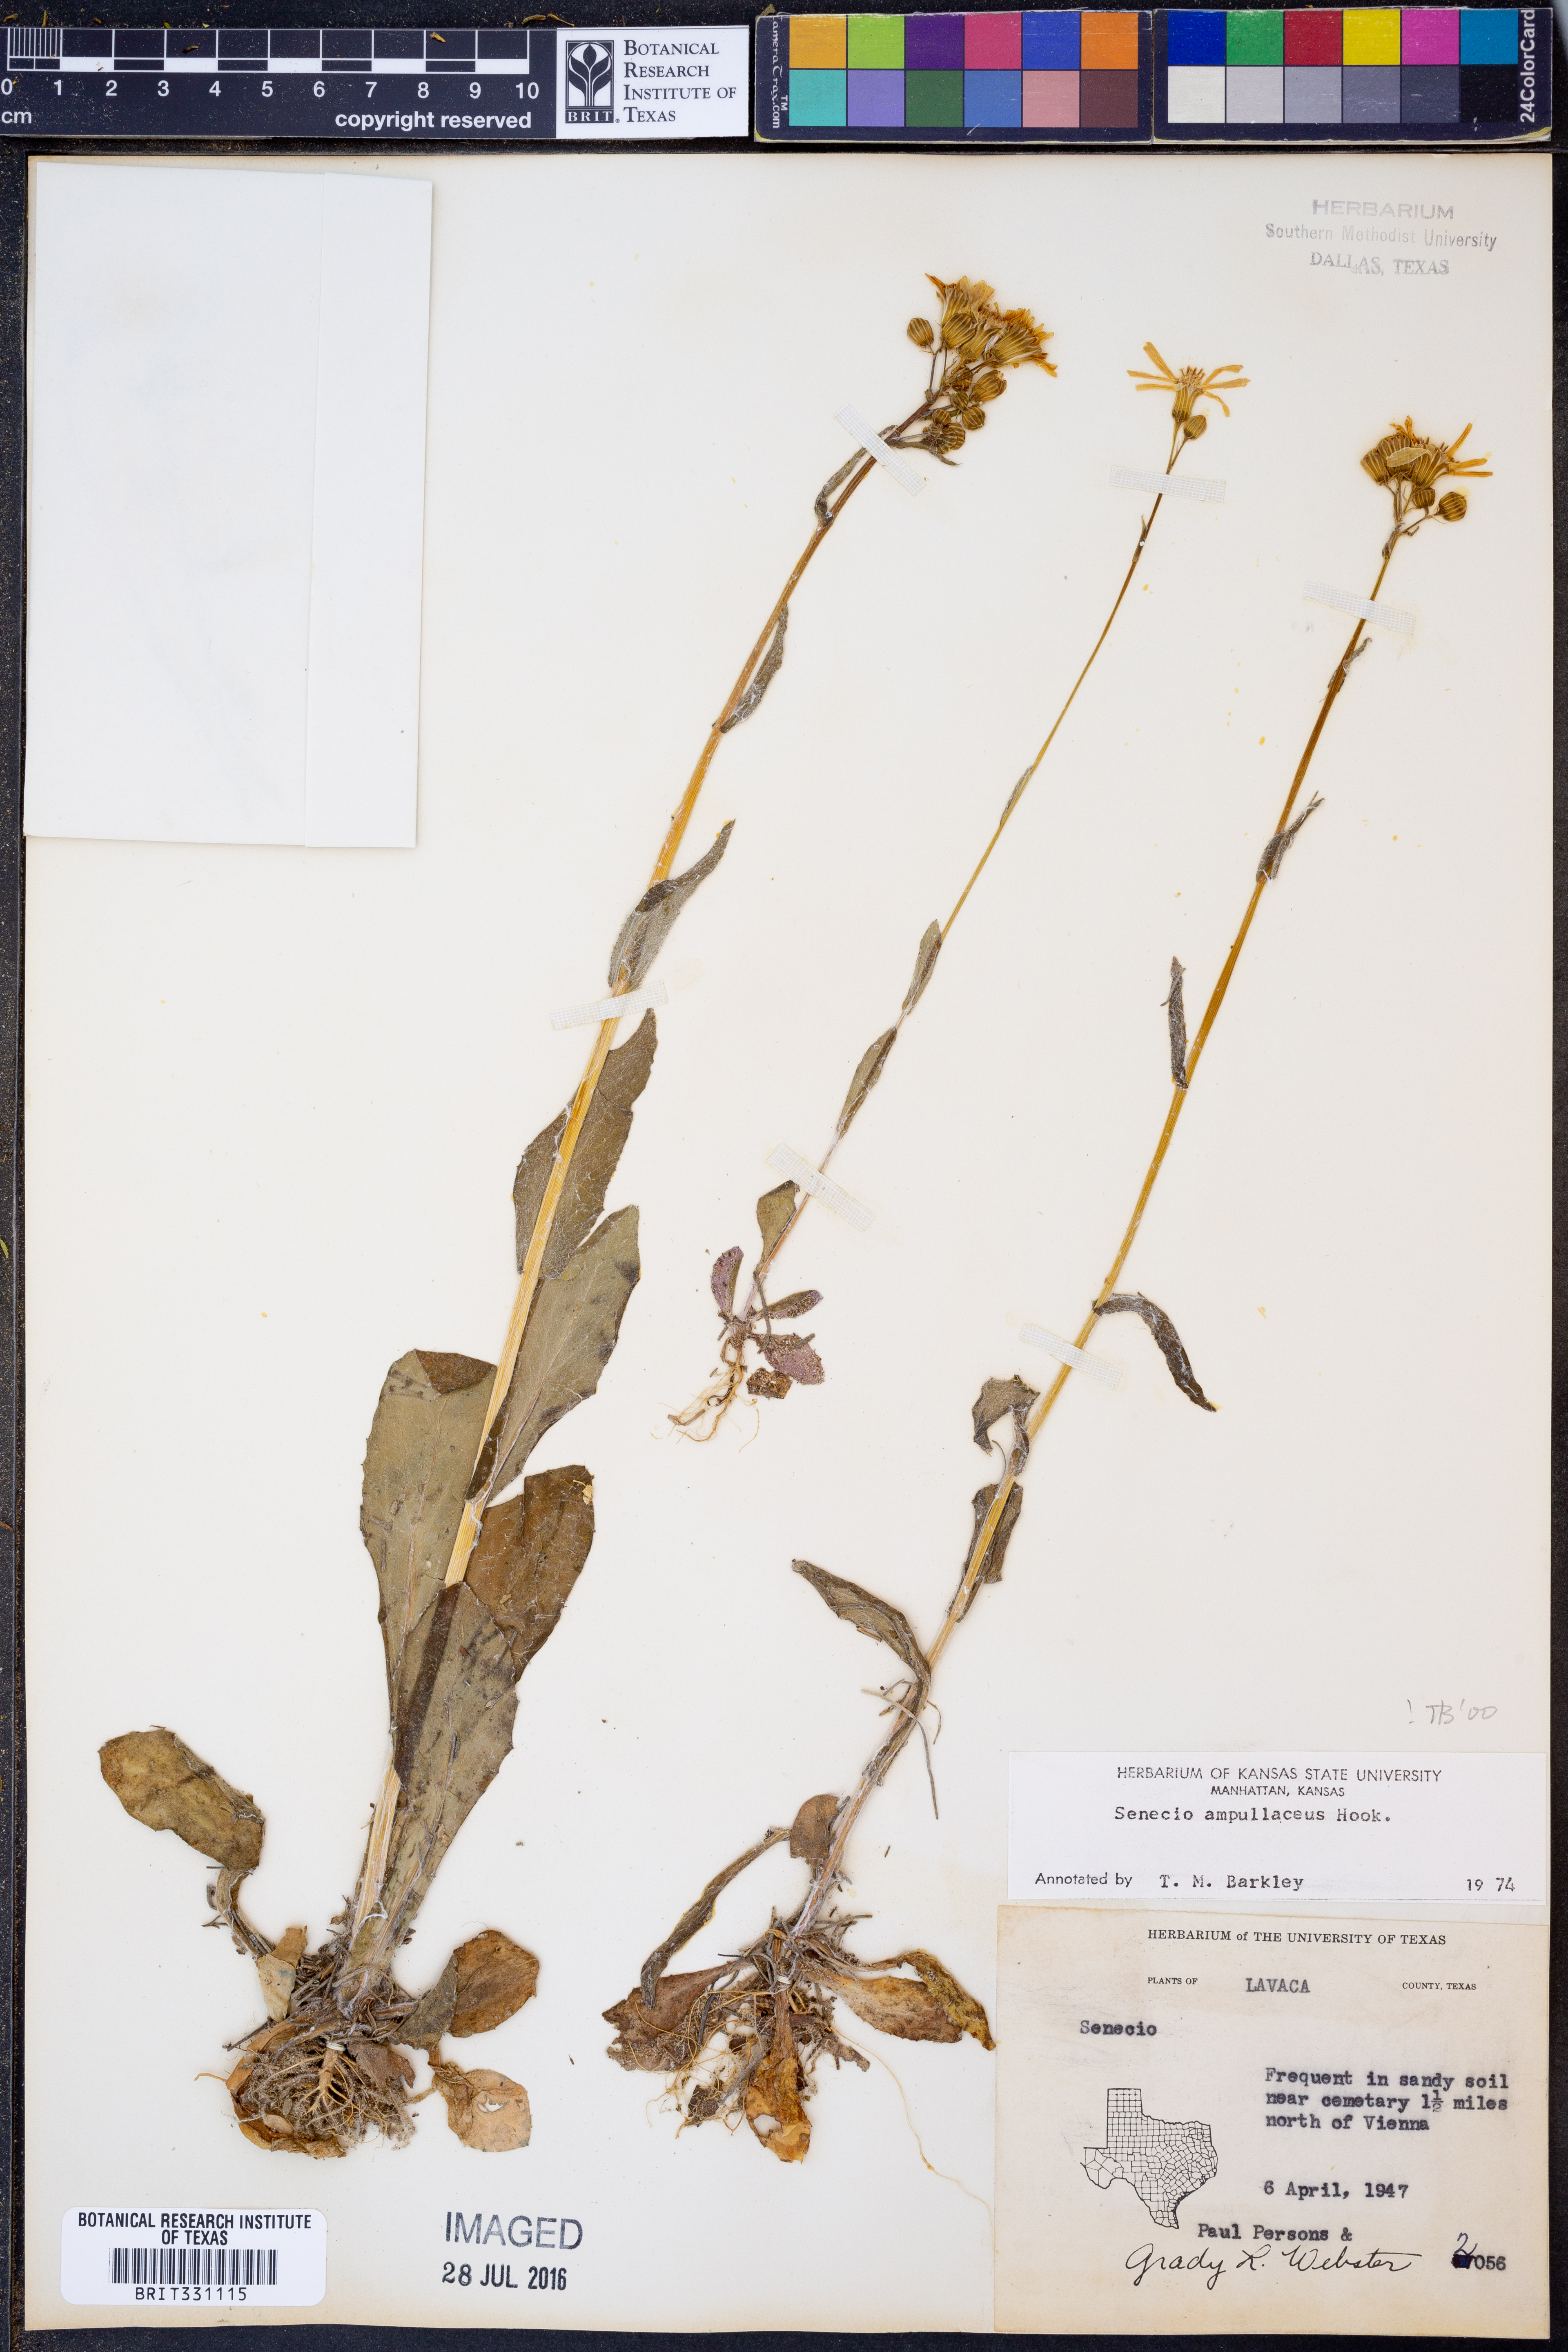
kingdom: Plantae
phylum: Tracheophyta
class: Magnoliopsida
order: Asterales
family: Asteraceae
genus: Senecio
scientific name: Senecio ampullaceus
